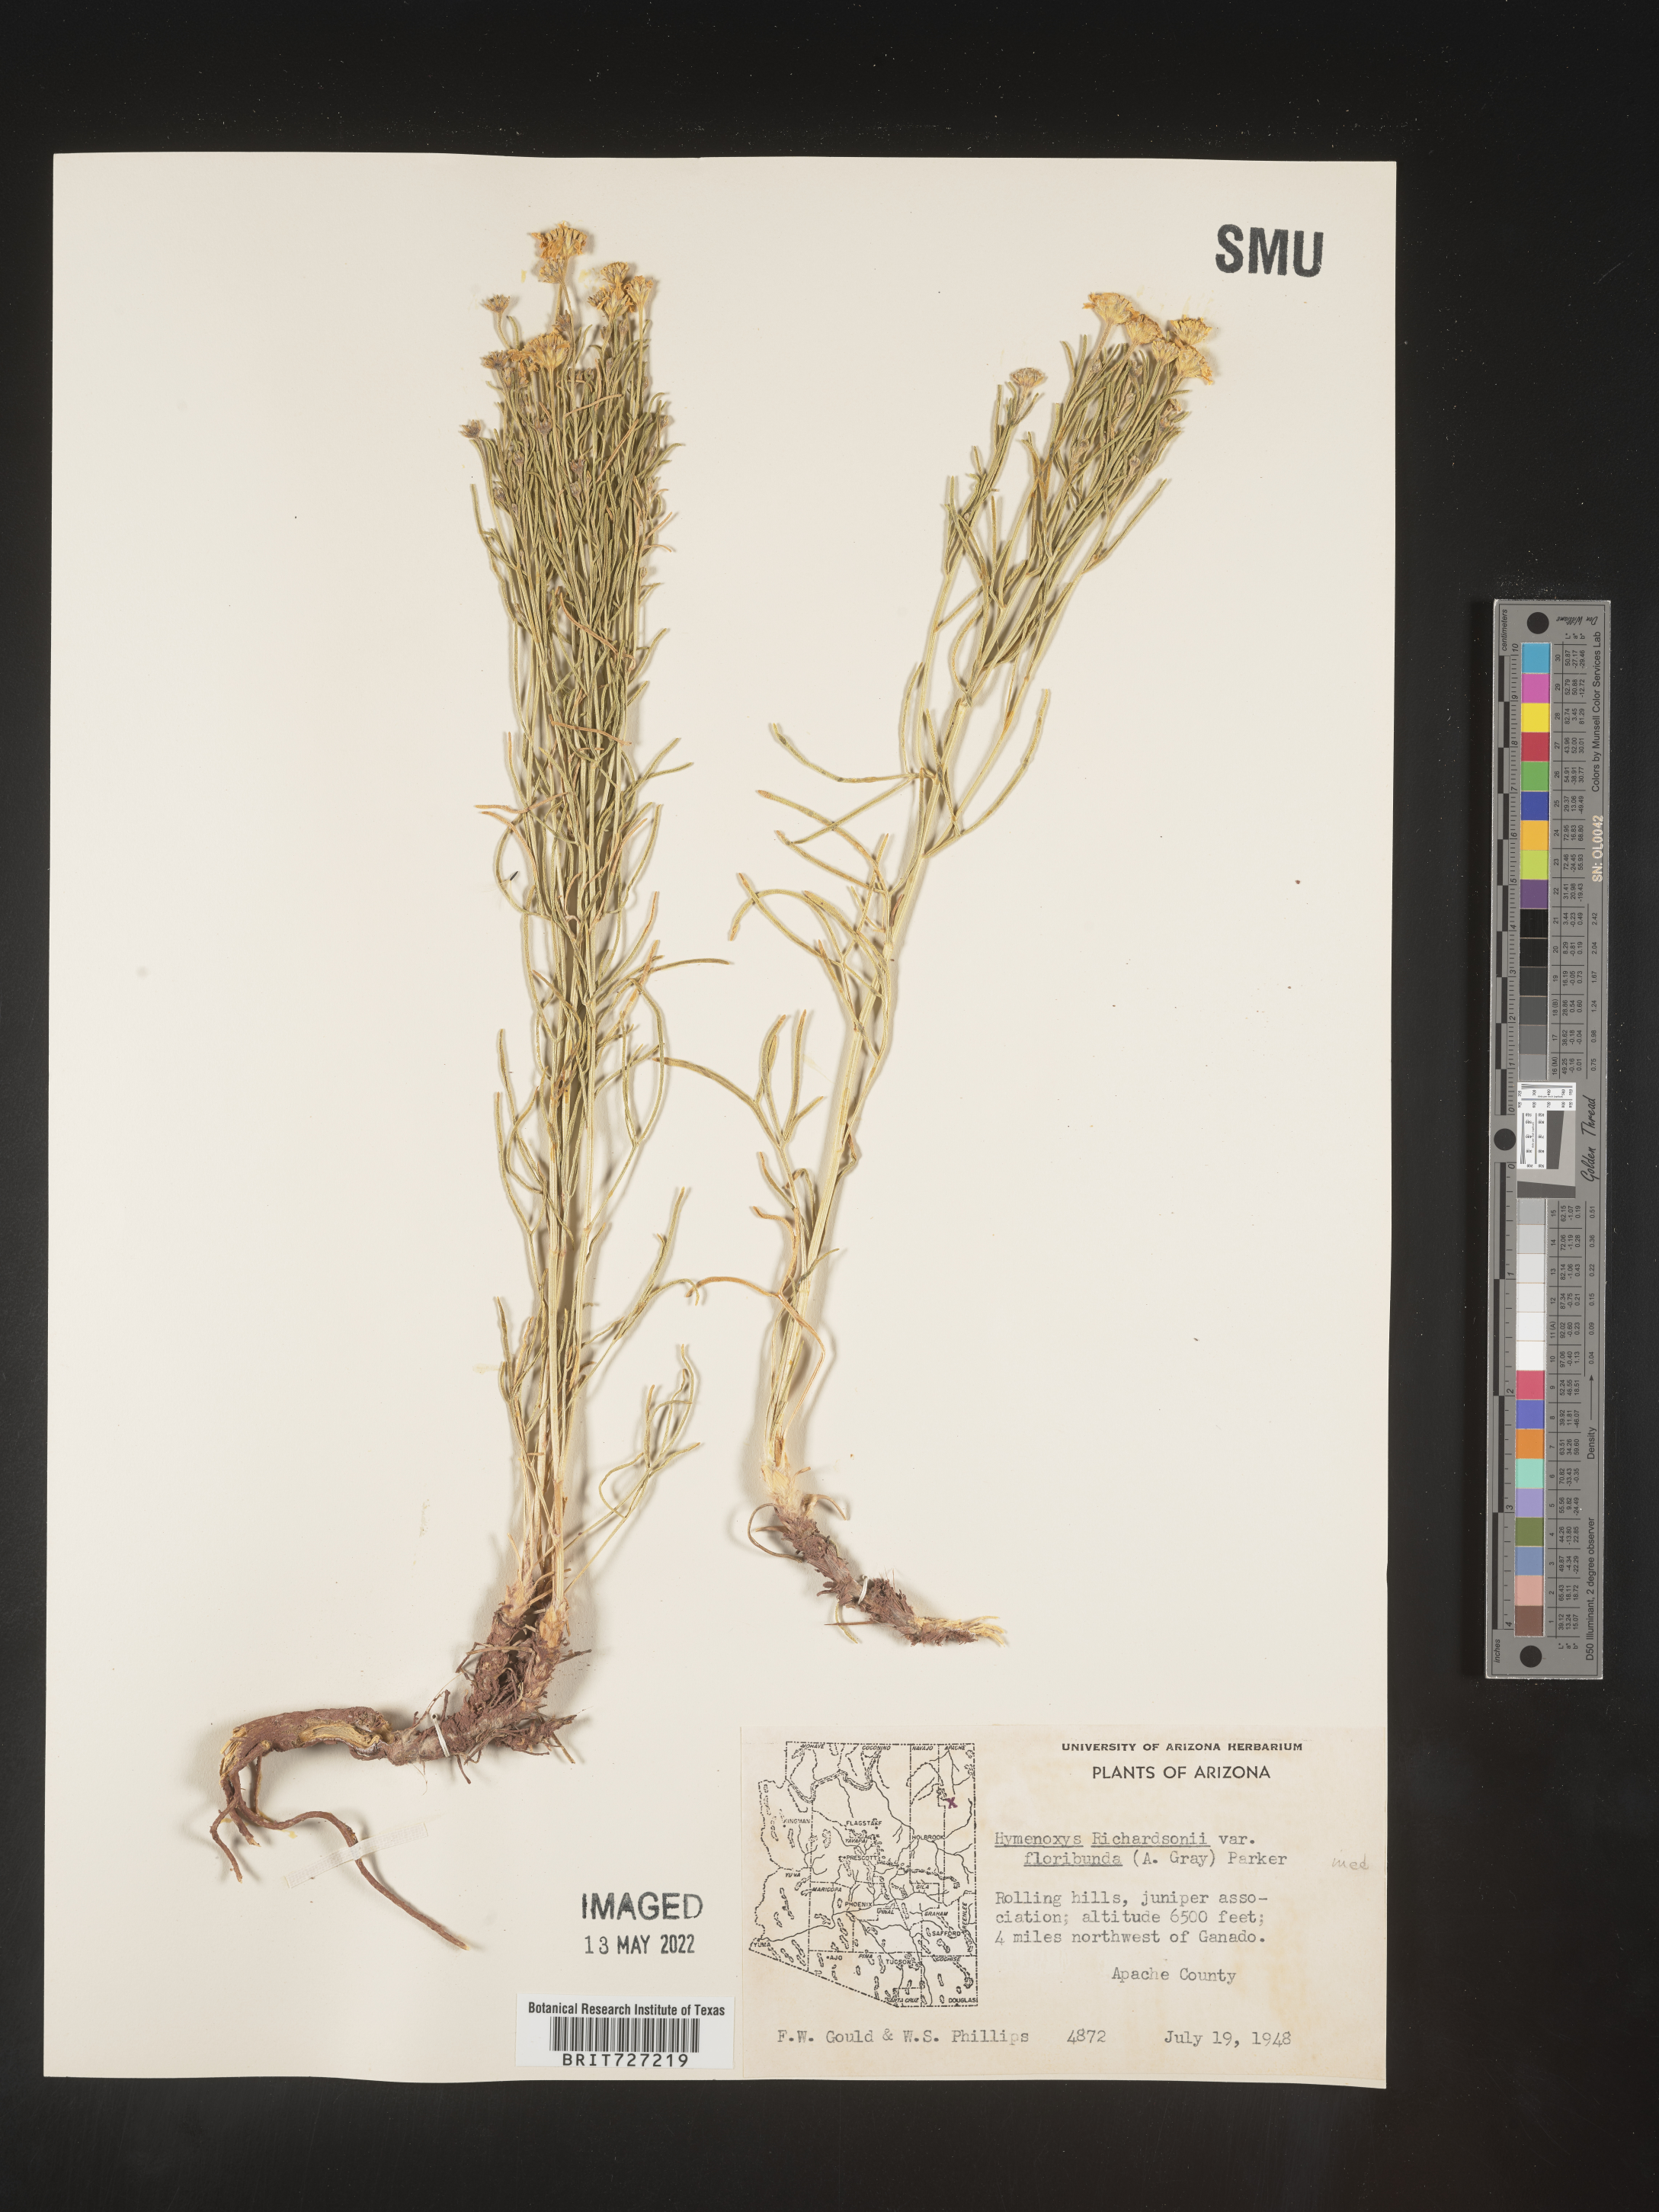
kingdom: Plantae
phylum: Tracheophyta
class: Magnoliopsida
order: Asterales
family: Asteraceae
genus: Hymenoxys
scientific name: Hymenoxys richardsonii
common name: Pingue rubberweed
